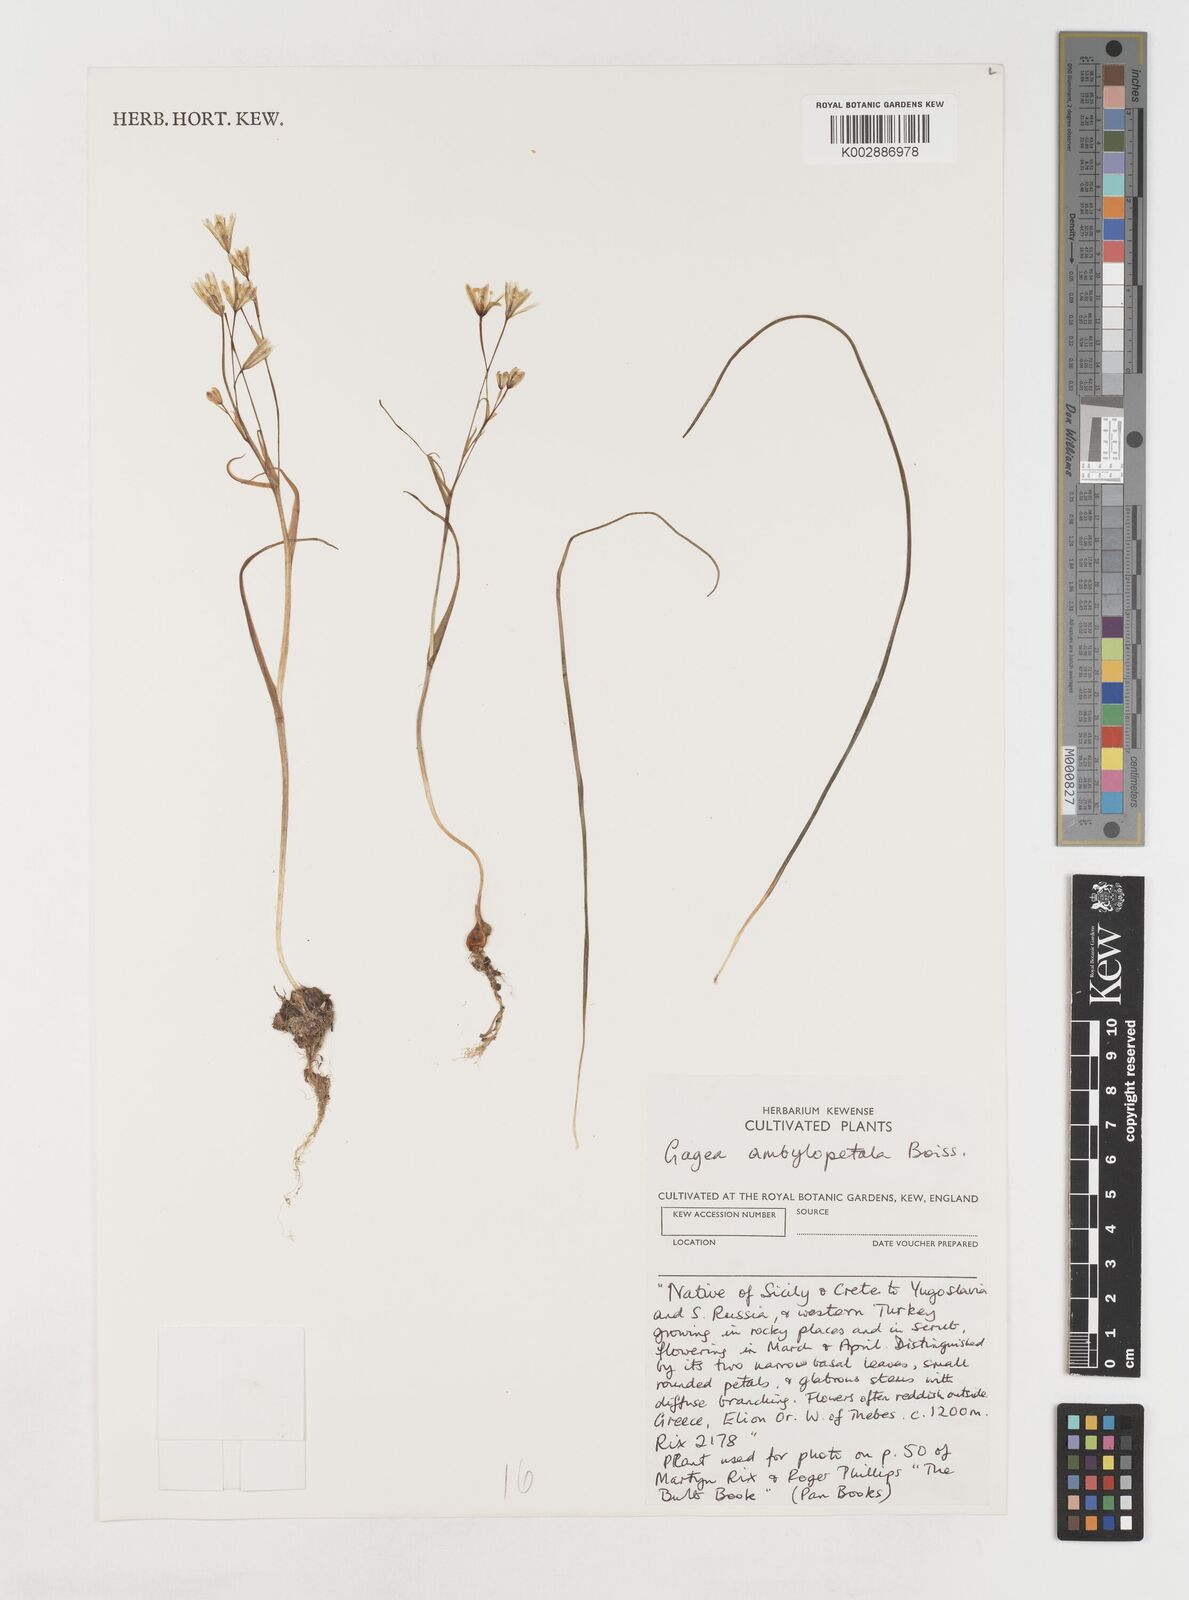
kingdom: Plantae
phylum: Tracheophyta
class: Liliopsida
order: Liliales
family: Liliaceae
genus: Gagea
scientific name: Gagea amblyopetala
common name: Blunt-flowered gagea
